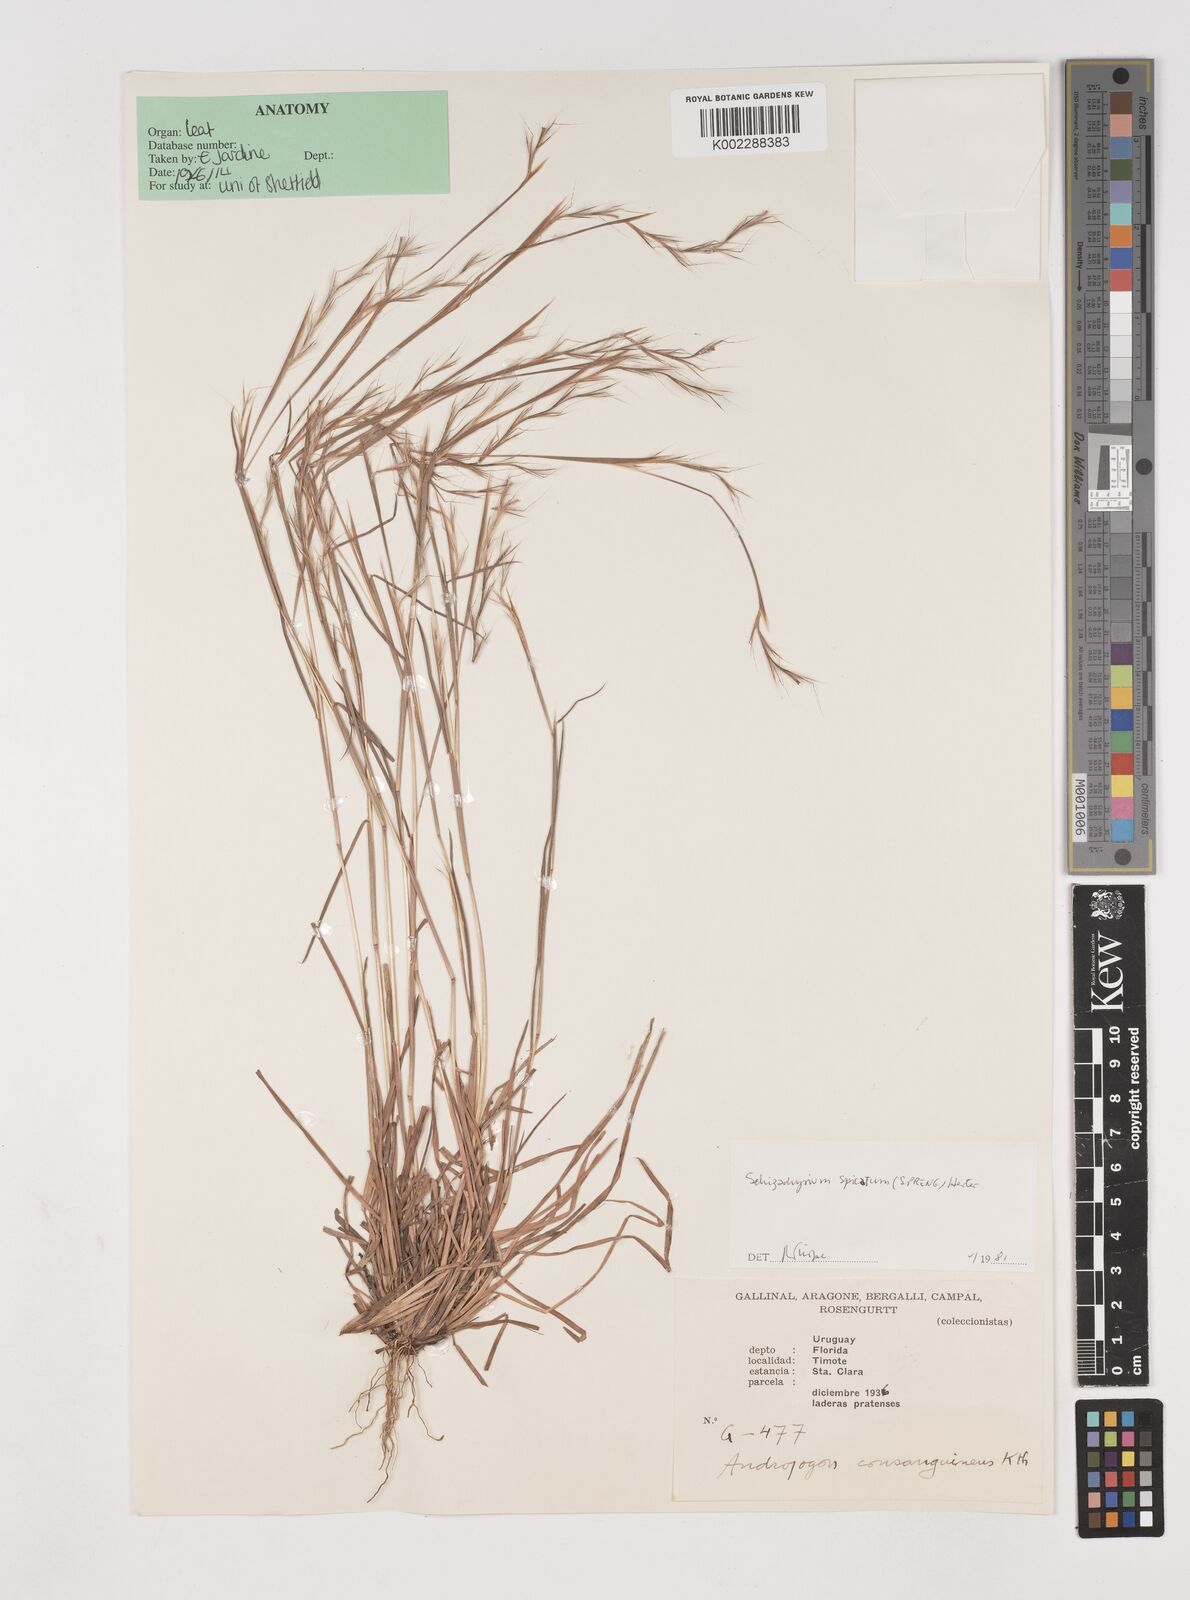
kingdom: Plantae
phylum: Tracheophyta
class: Liliopsida
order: Poales
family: Poaceae
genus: Schizachyrium
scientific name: Schizachyrium spicatum
